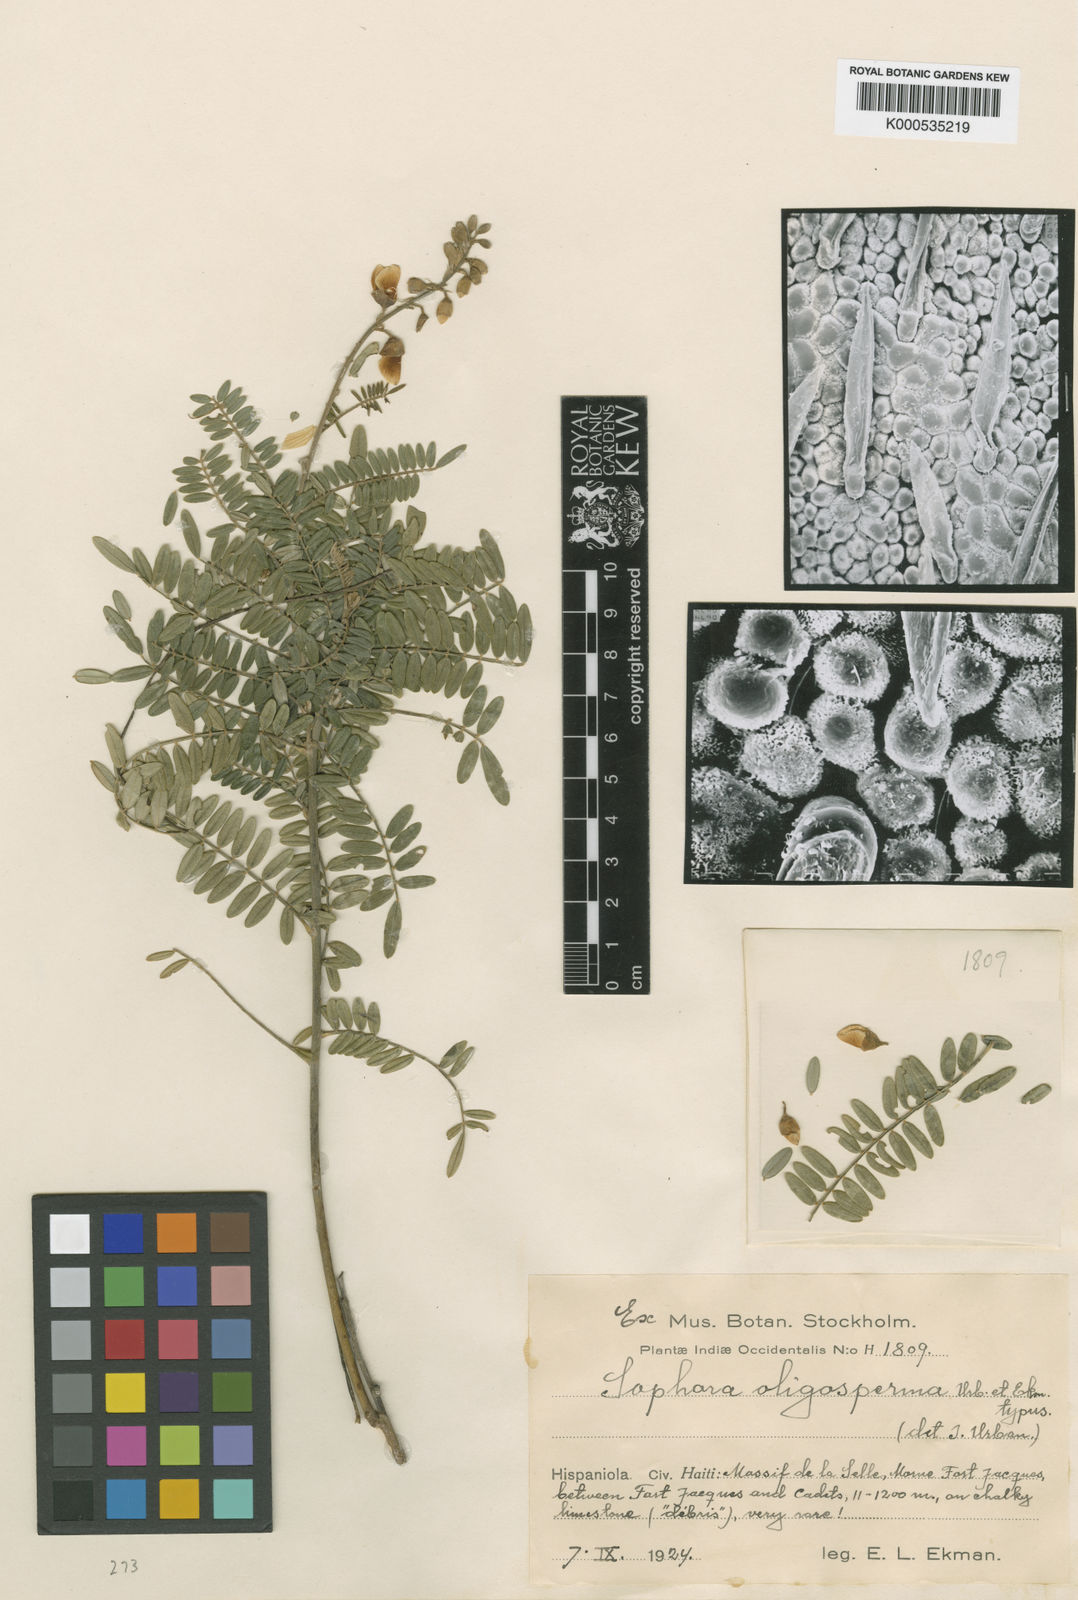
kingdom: Plantae
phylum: Tracheophyta
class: Magnoliopsida
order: Fabales
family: Fabaceae
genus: Sophora
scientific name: Sophora albopetiolulata
